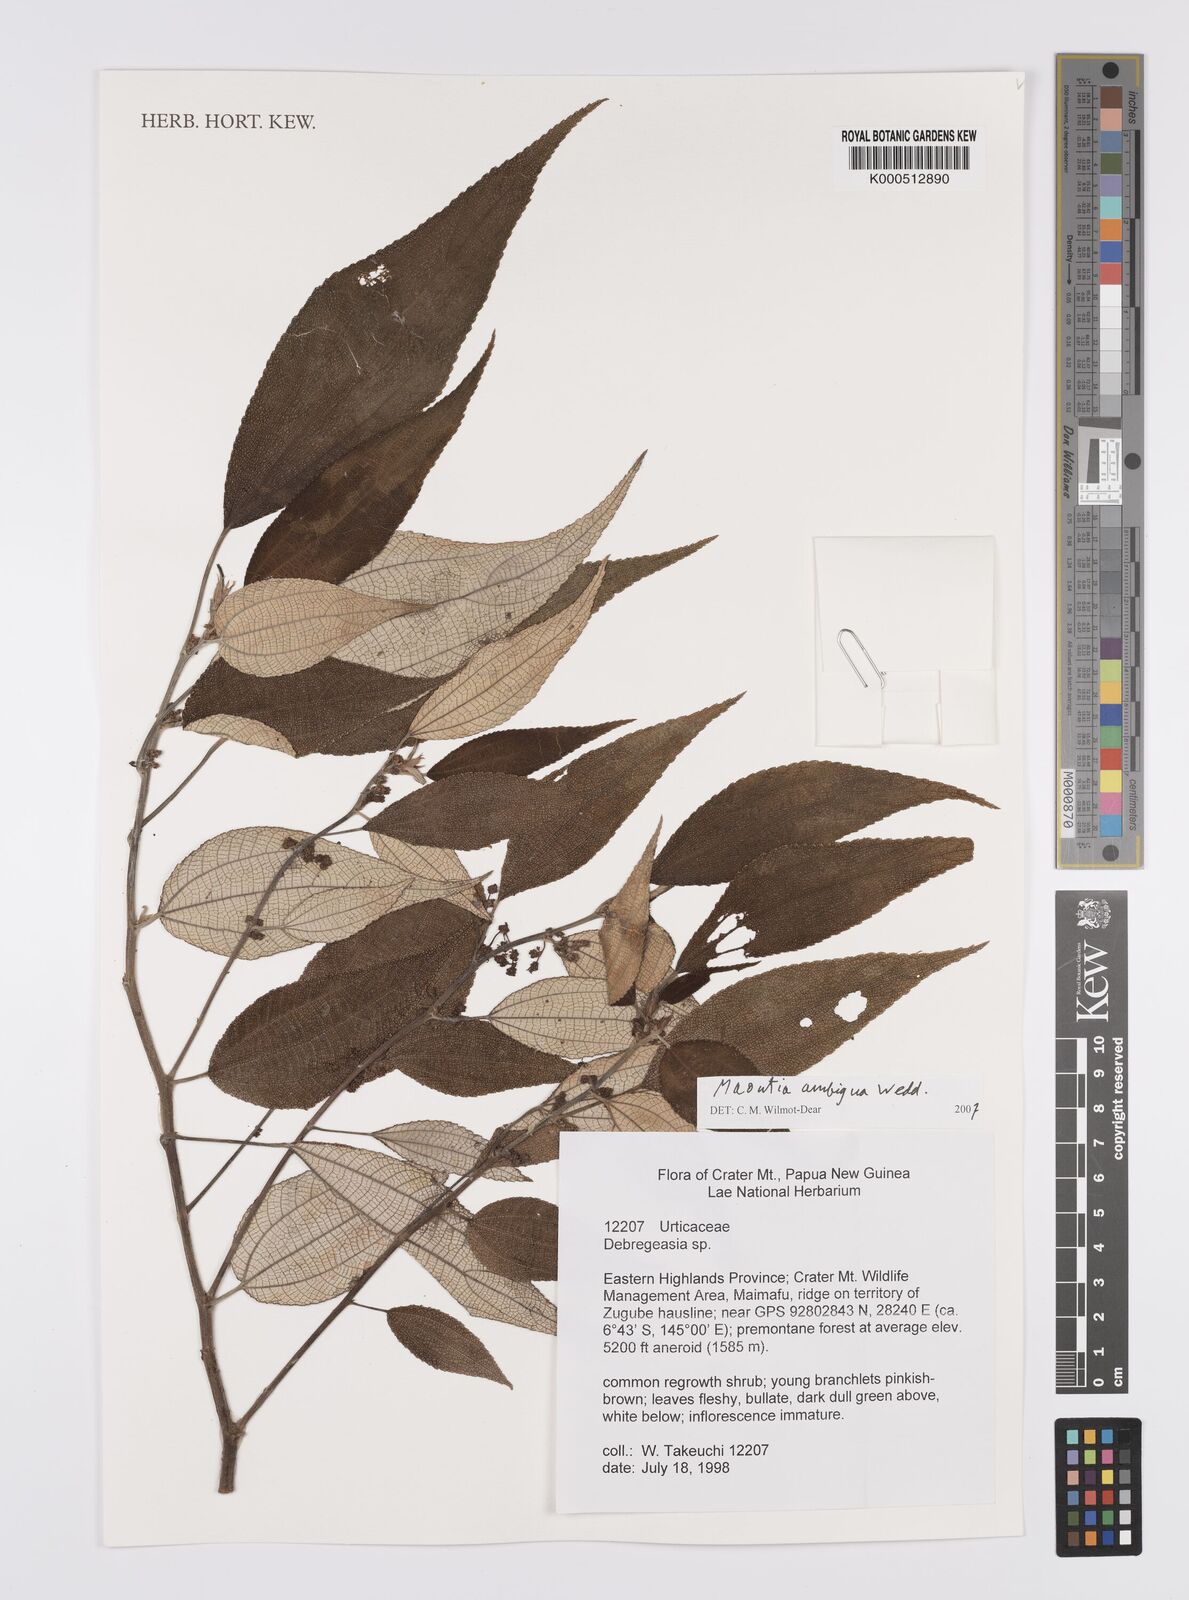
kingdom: Plantae
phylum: Tracheophyta
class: Magnoliopsida
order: Rosales
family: Urticaceae
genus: Maoutia
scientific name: Maoutia ambigua
